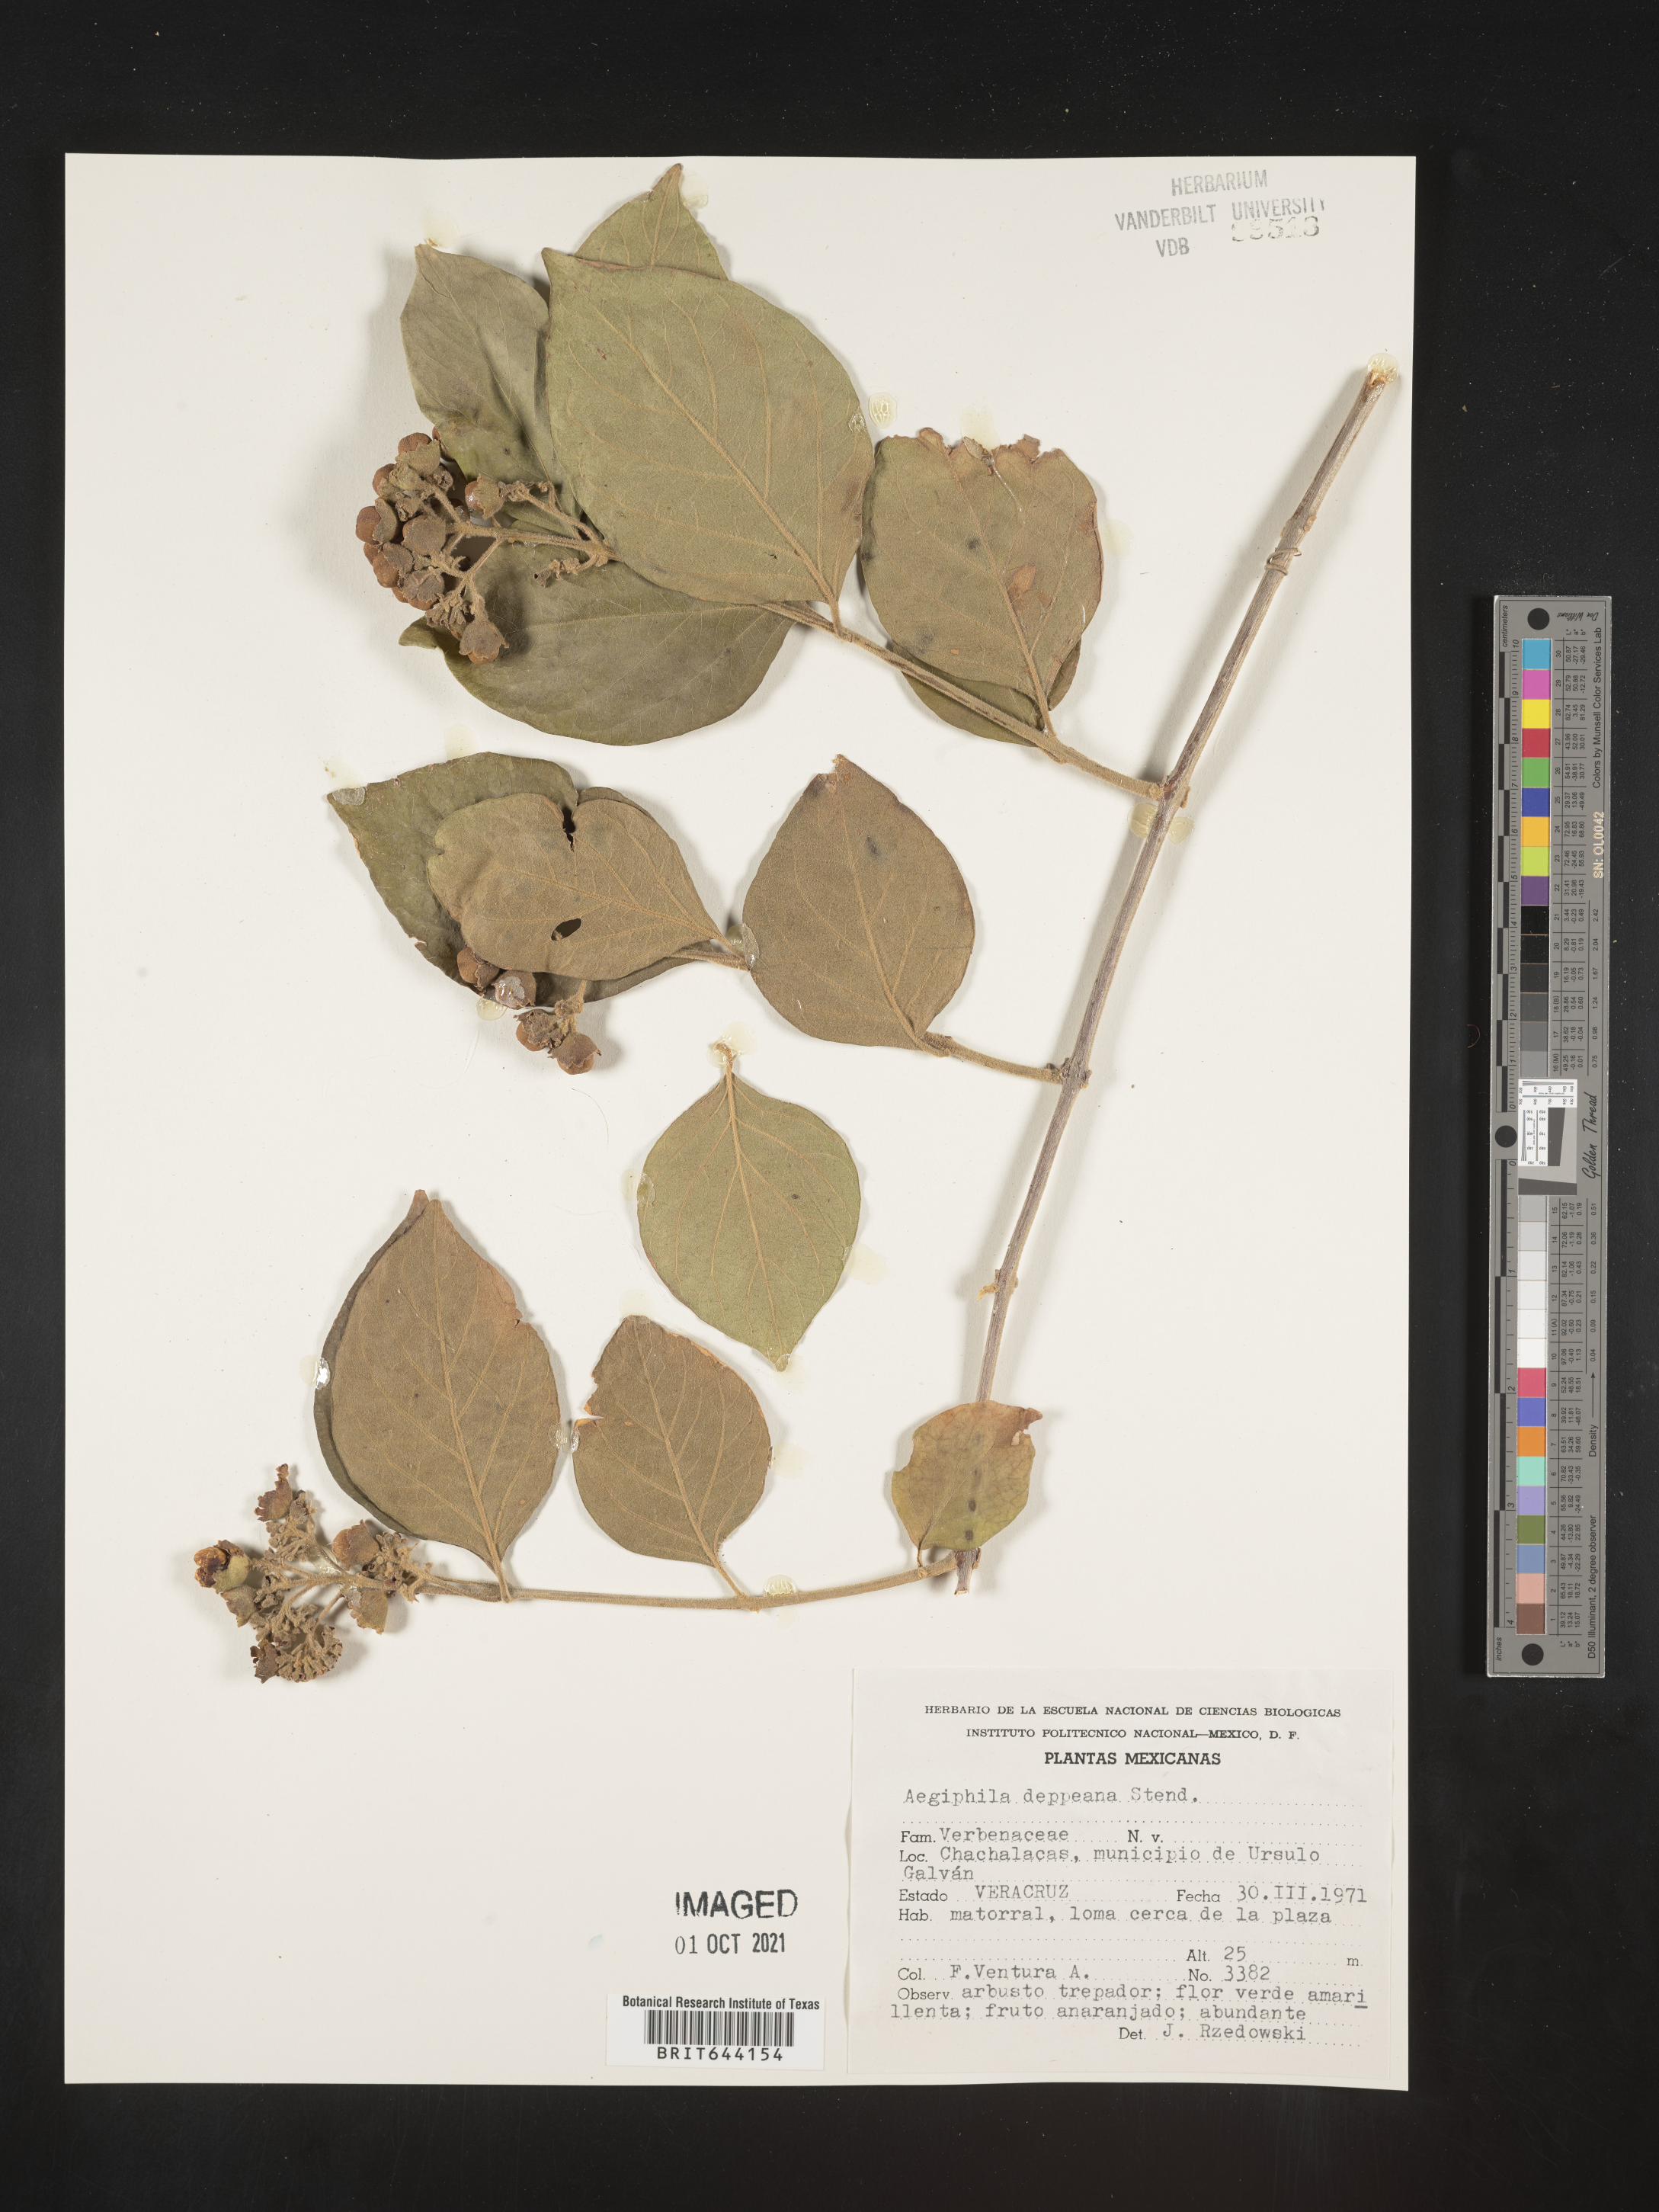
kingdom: Plantae
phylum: Tracheophyta
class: Magnoliopsida
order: Lamiales
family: Lamiaceae
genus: Aegiphila
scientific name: Aegiphila
